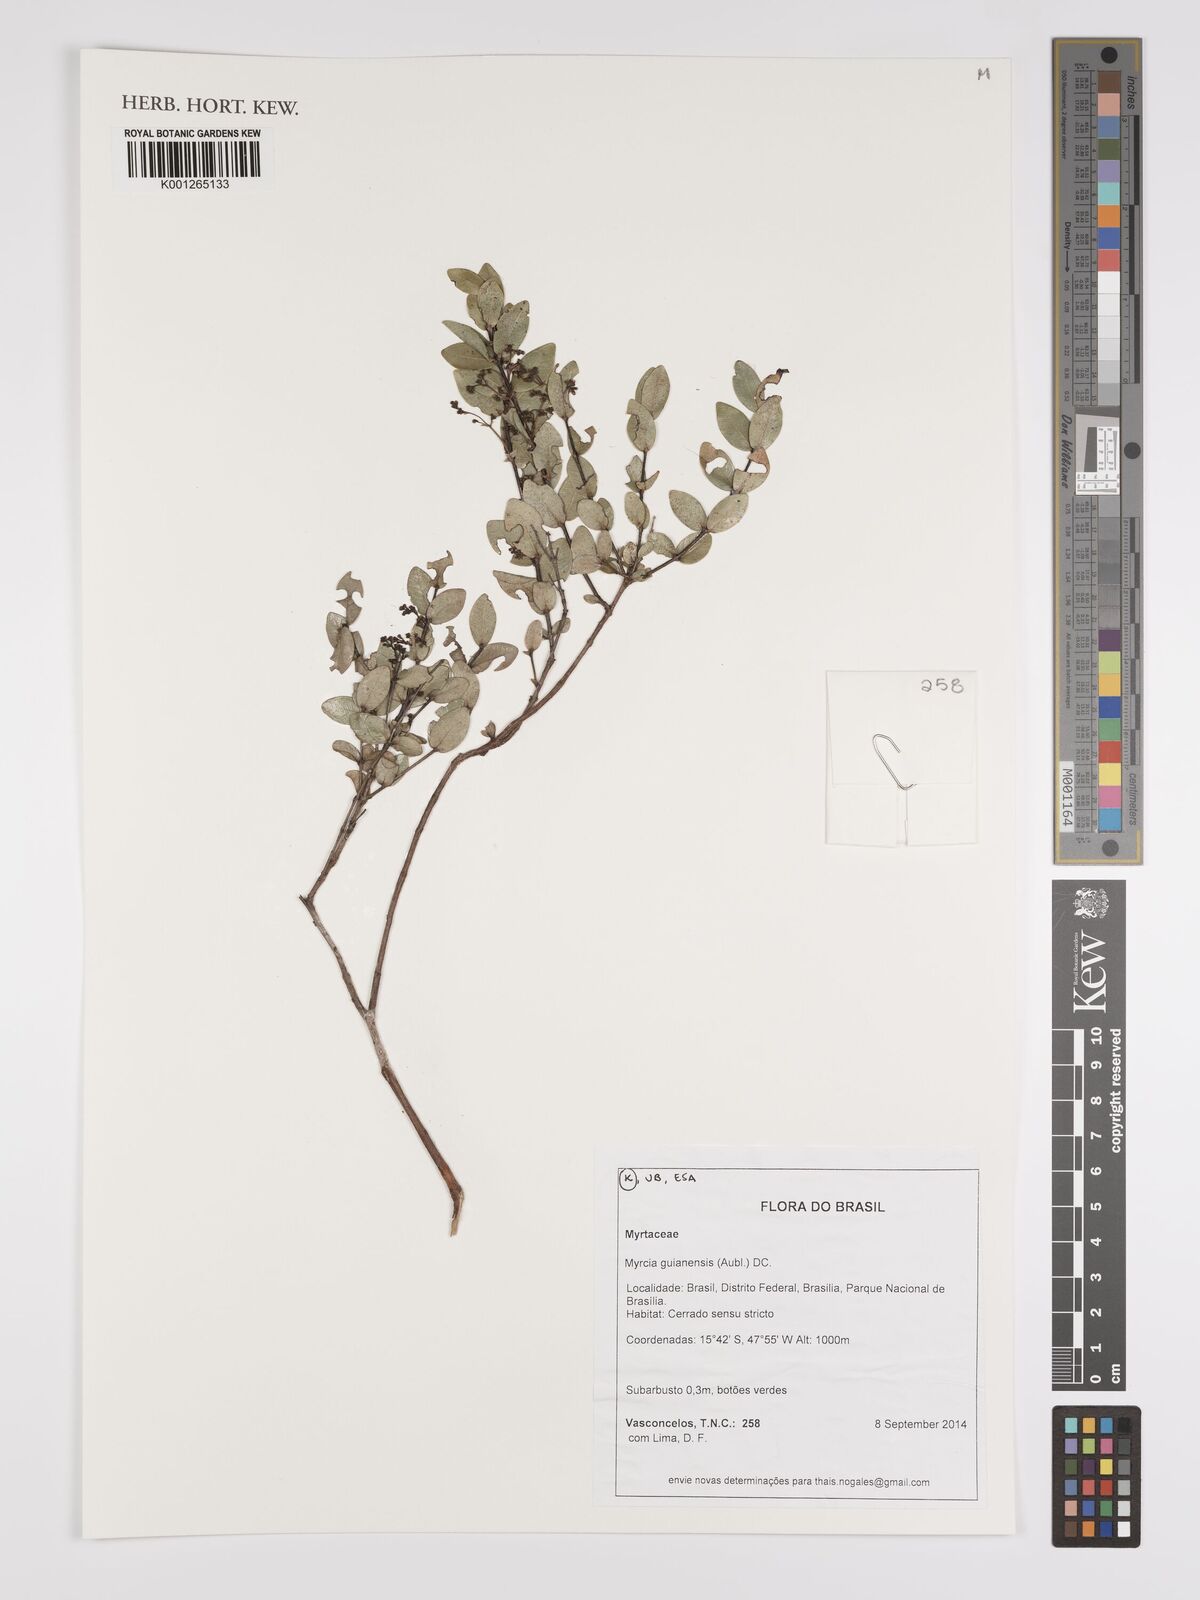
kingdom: Plantae
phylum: Tracheophyta
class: Magnoliopsida
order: Myrtales
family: Myrtaceae
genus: Myrcia
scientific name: Myrcia guianensis
